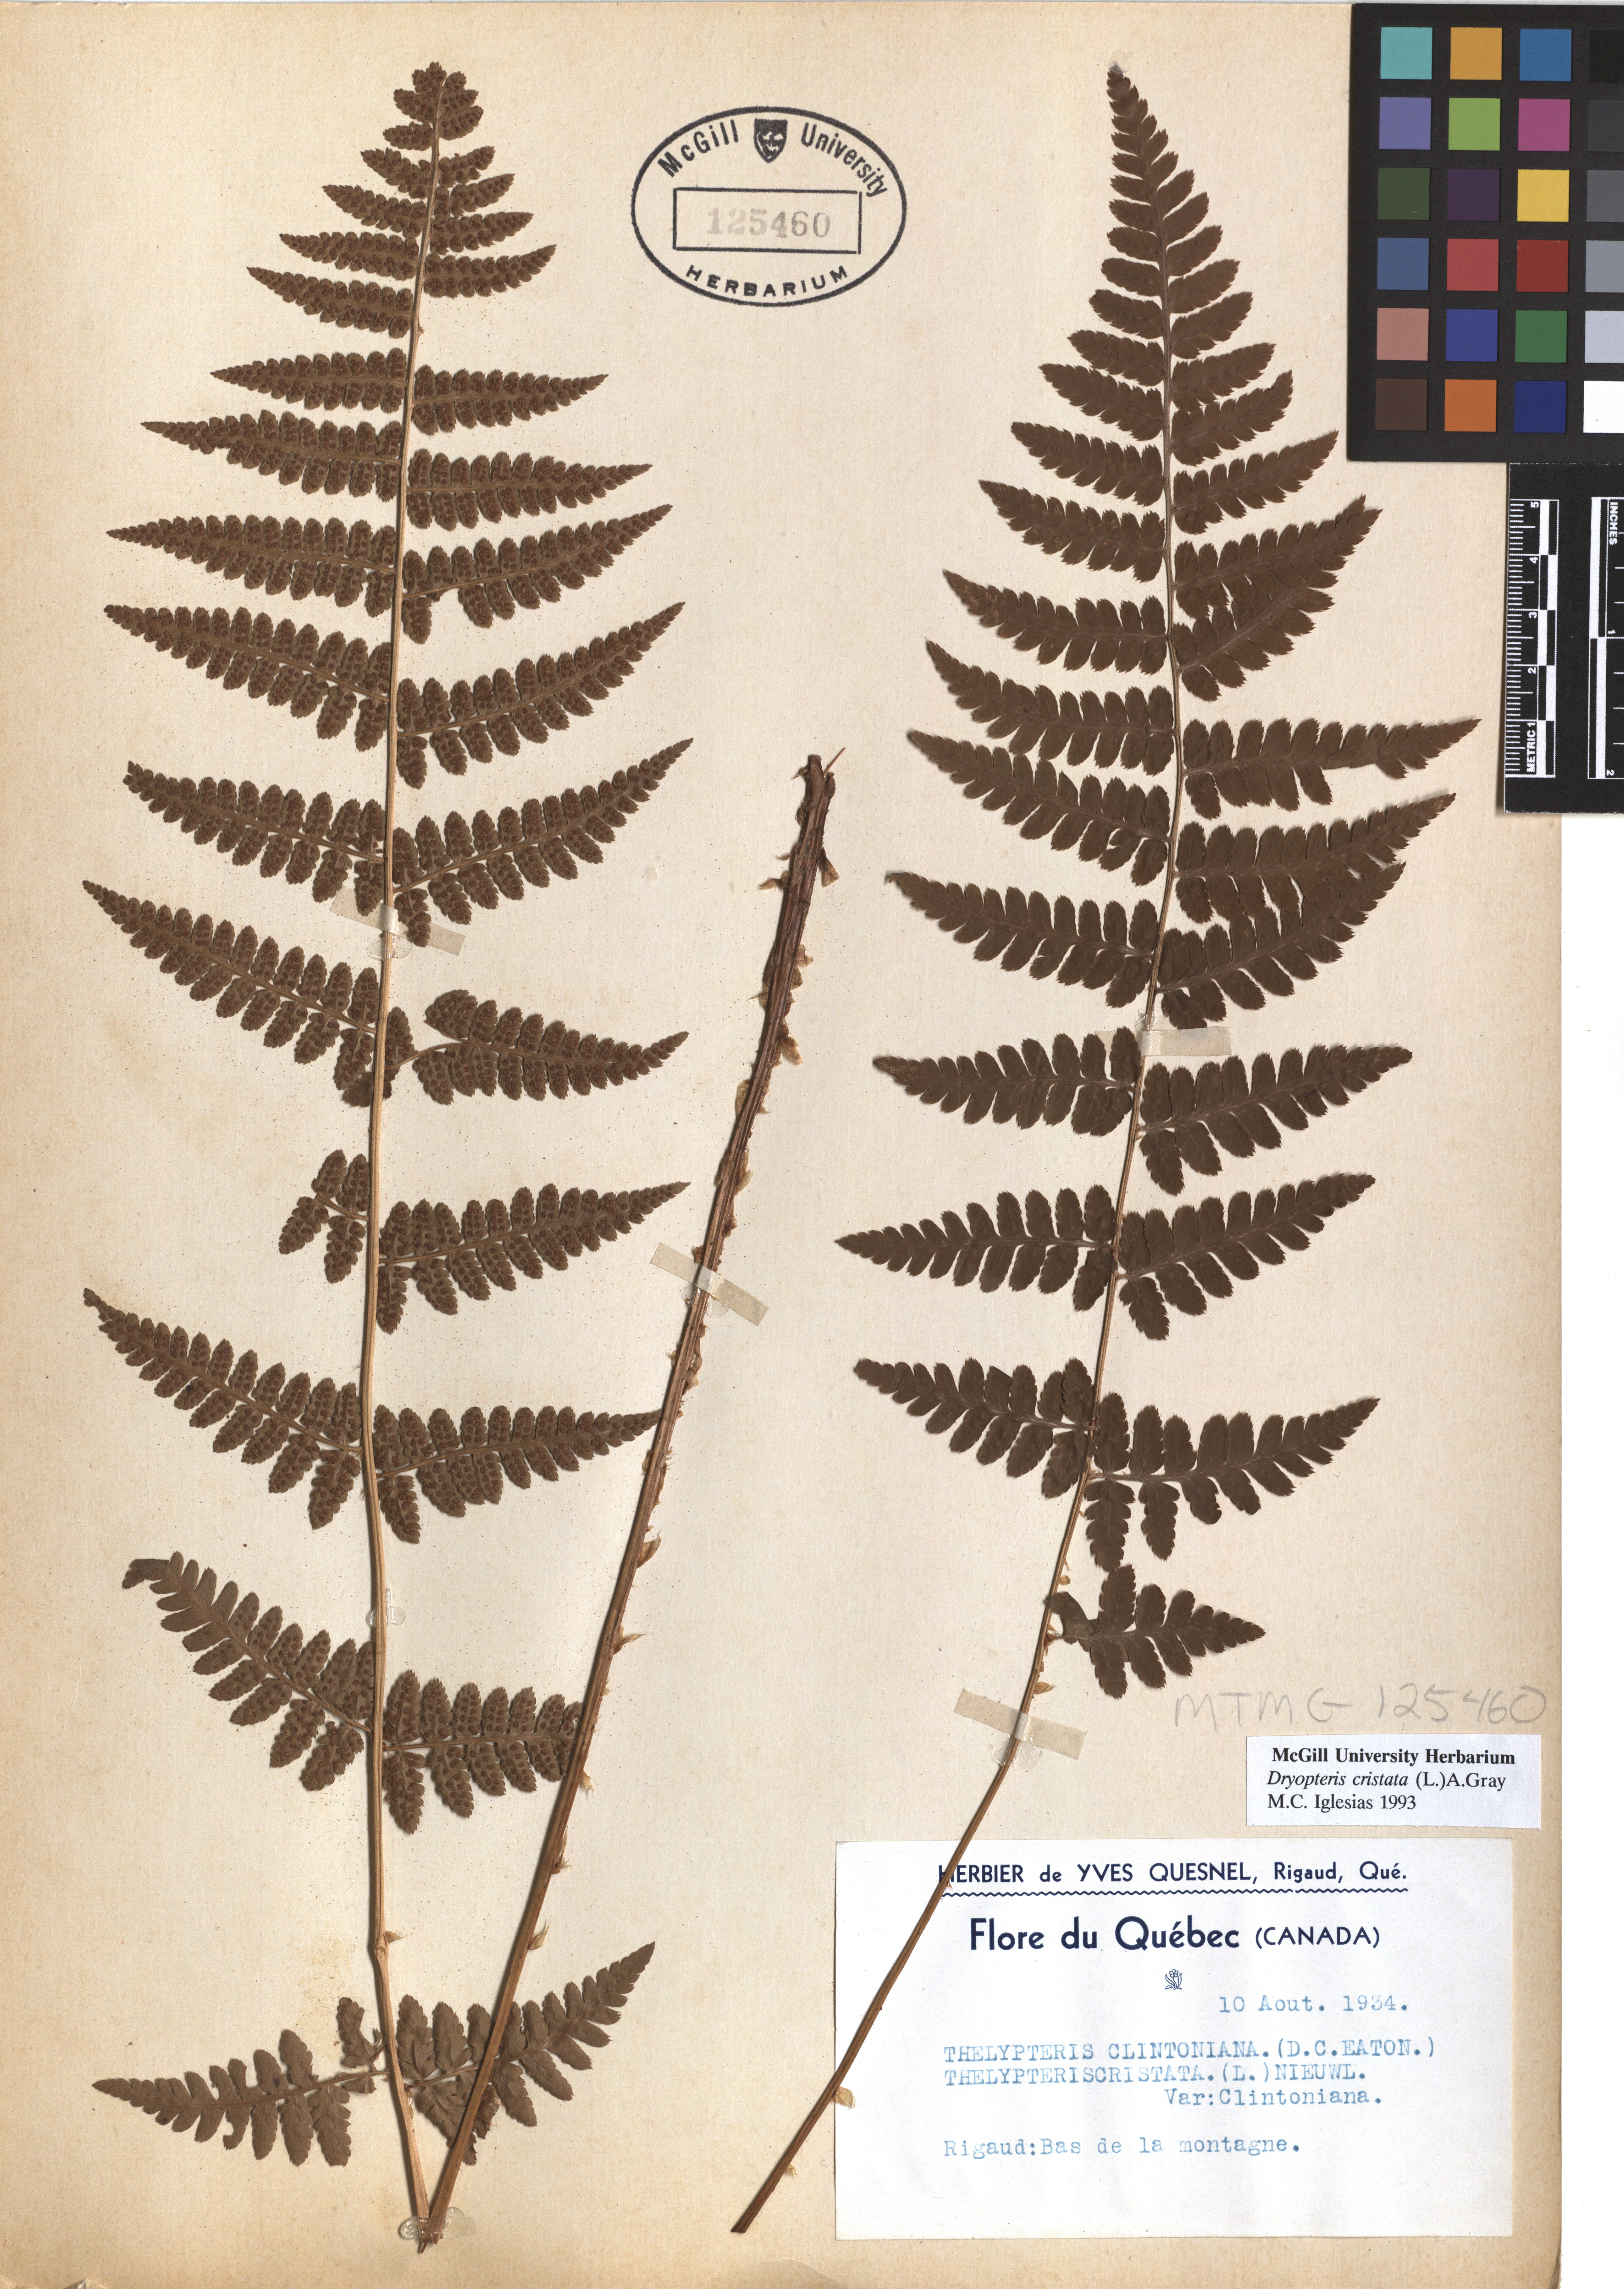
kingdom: Plantae
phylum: Tracheophyta
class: Polypodiopsida
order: Polypodiales
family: Dryopteridaceae
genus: Dryopteris
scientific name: Dryopteris cristata
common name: Crested wood fern
